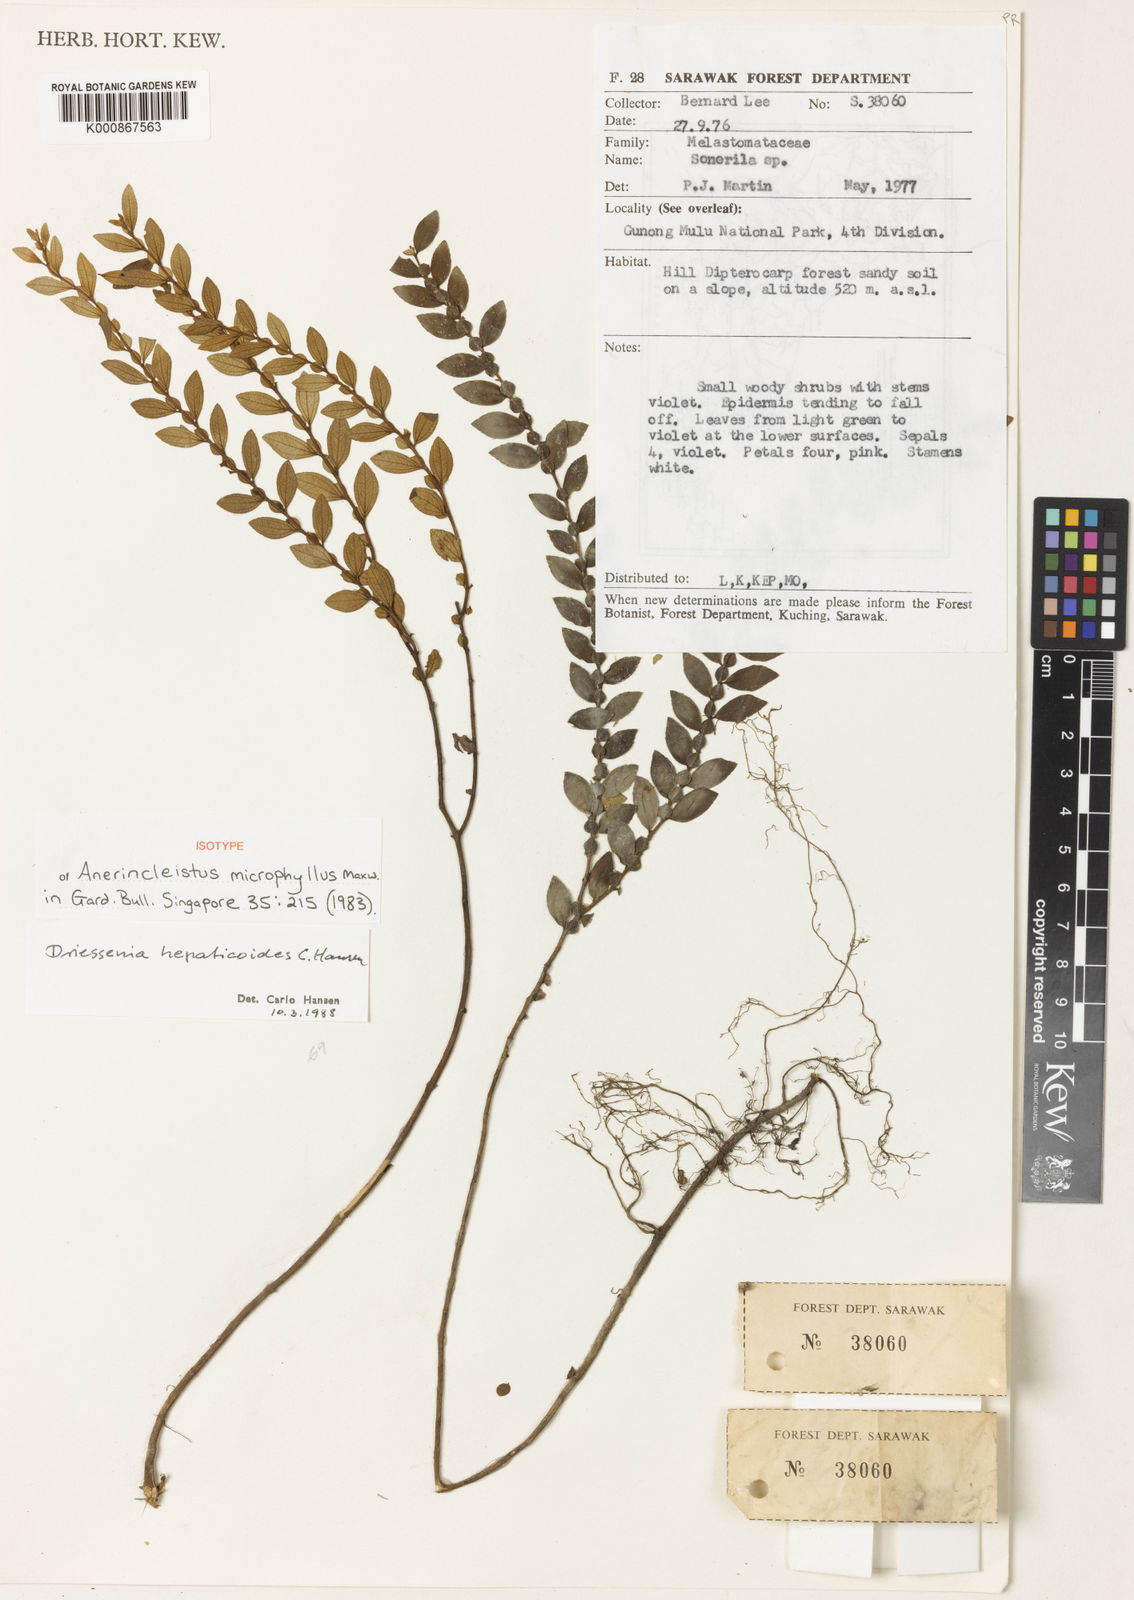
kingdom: Plantae
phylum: Tracheophyta
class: Magnoliopsida
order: Myrtales
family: Melastomataceae
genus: Driessenia
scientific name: Driessenia hepaticoides
